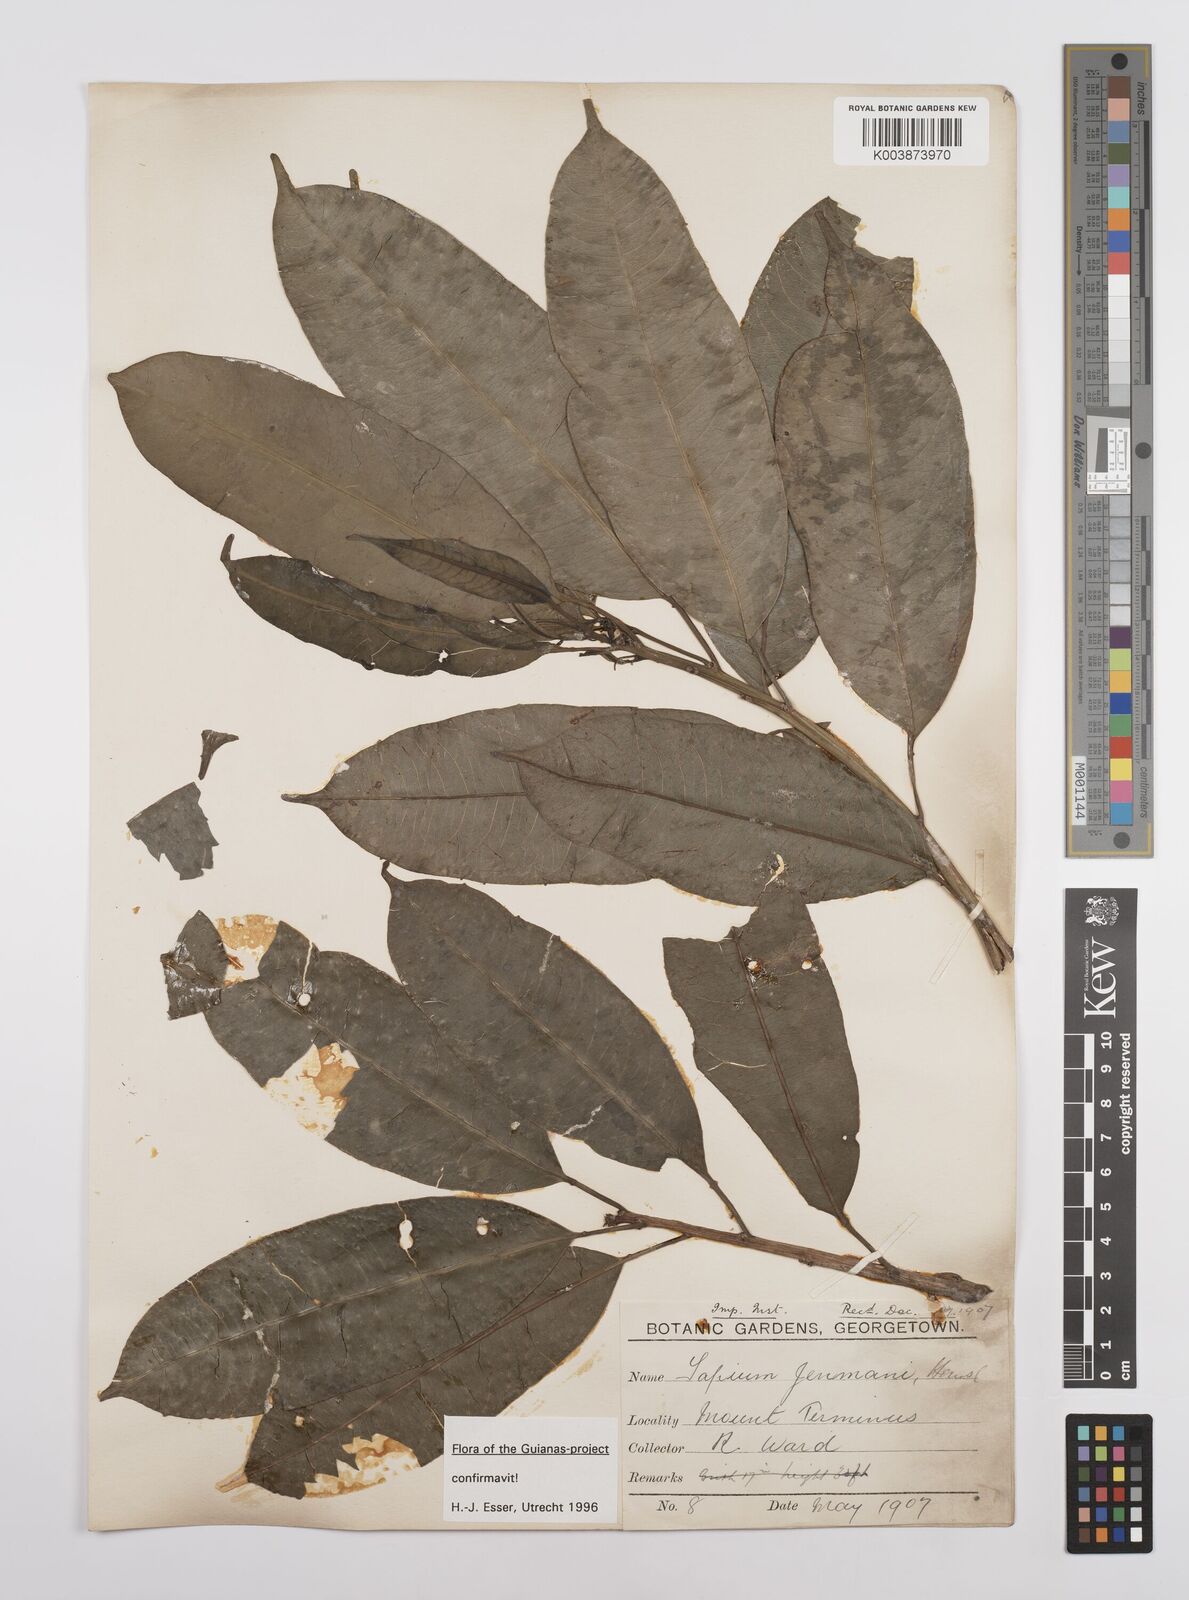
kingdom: Plantae
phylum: Tracheophyta
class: Magnoliopsida
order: Malpighiales
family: Euphorbiaceae
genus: Sapium
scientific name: Sapium jenmannii
